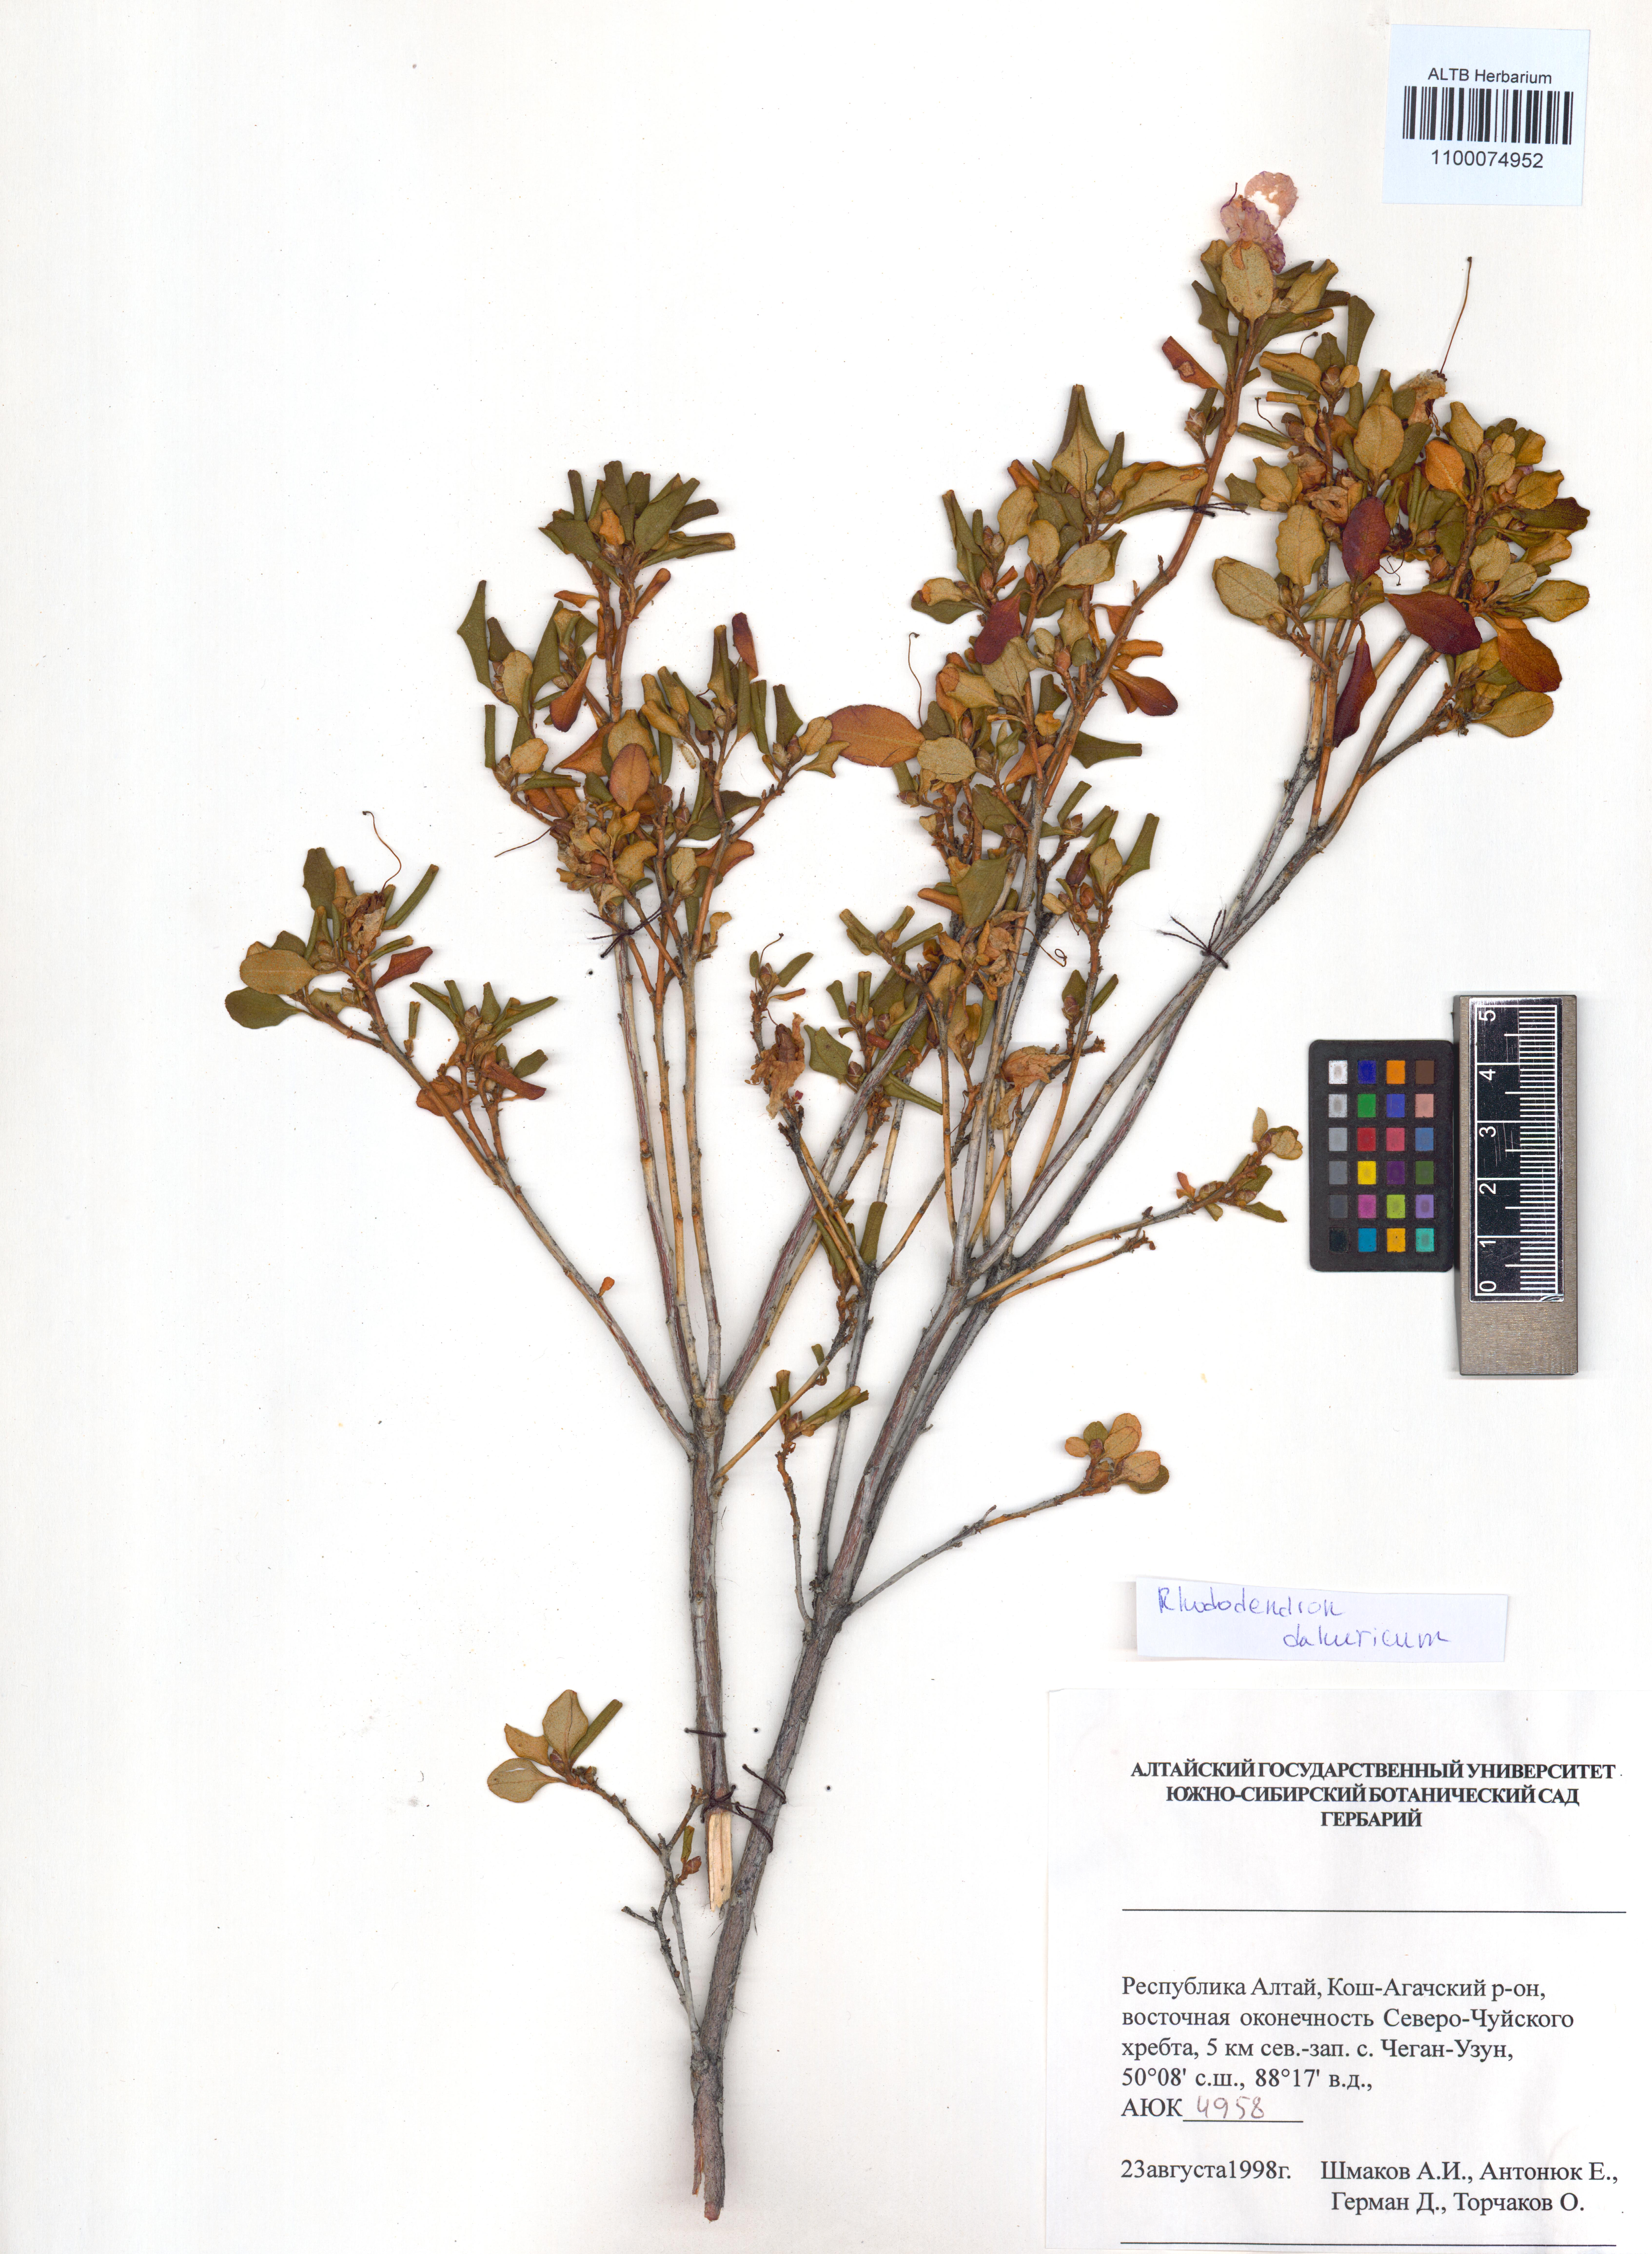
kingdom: Plantae
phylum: Tracheophyta
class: Magnoliopsida
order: Ericales
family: Ericaceae
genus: Rhododendron
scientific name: Rhododendron dauricum
